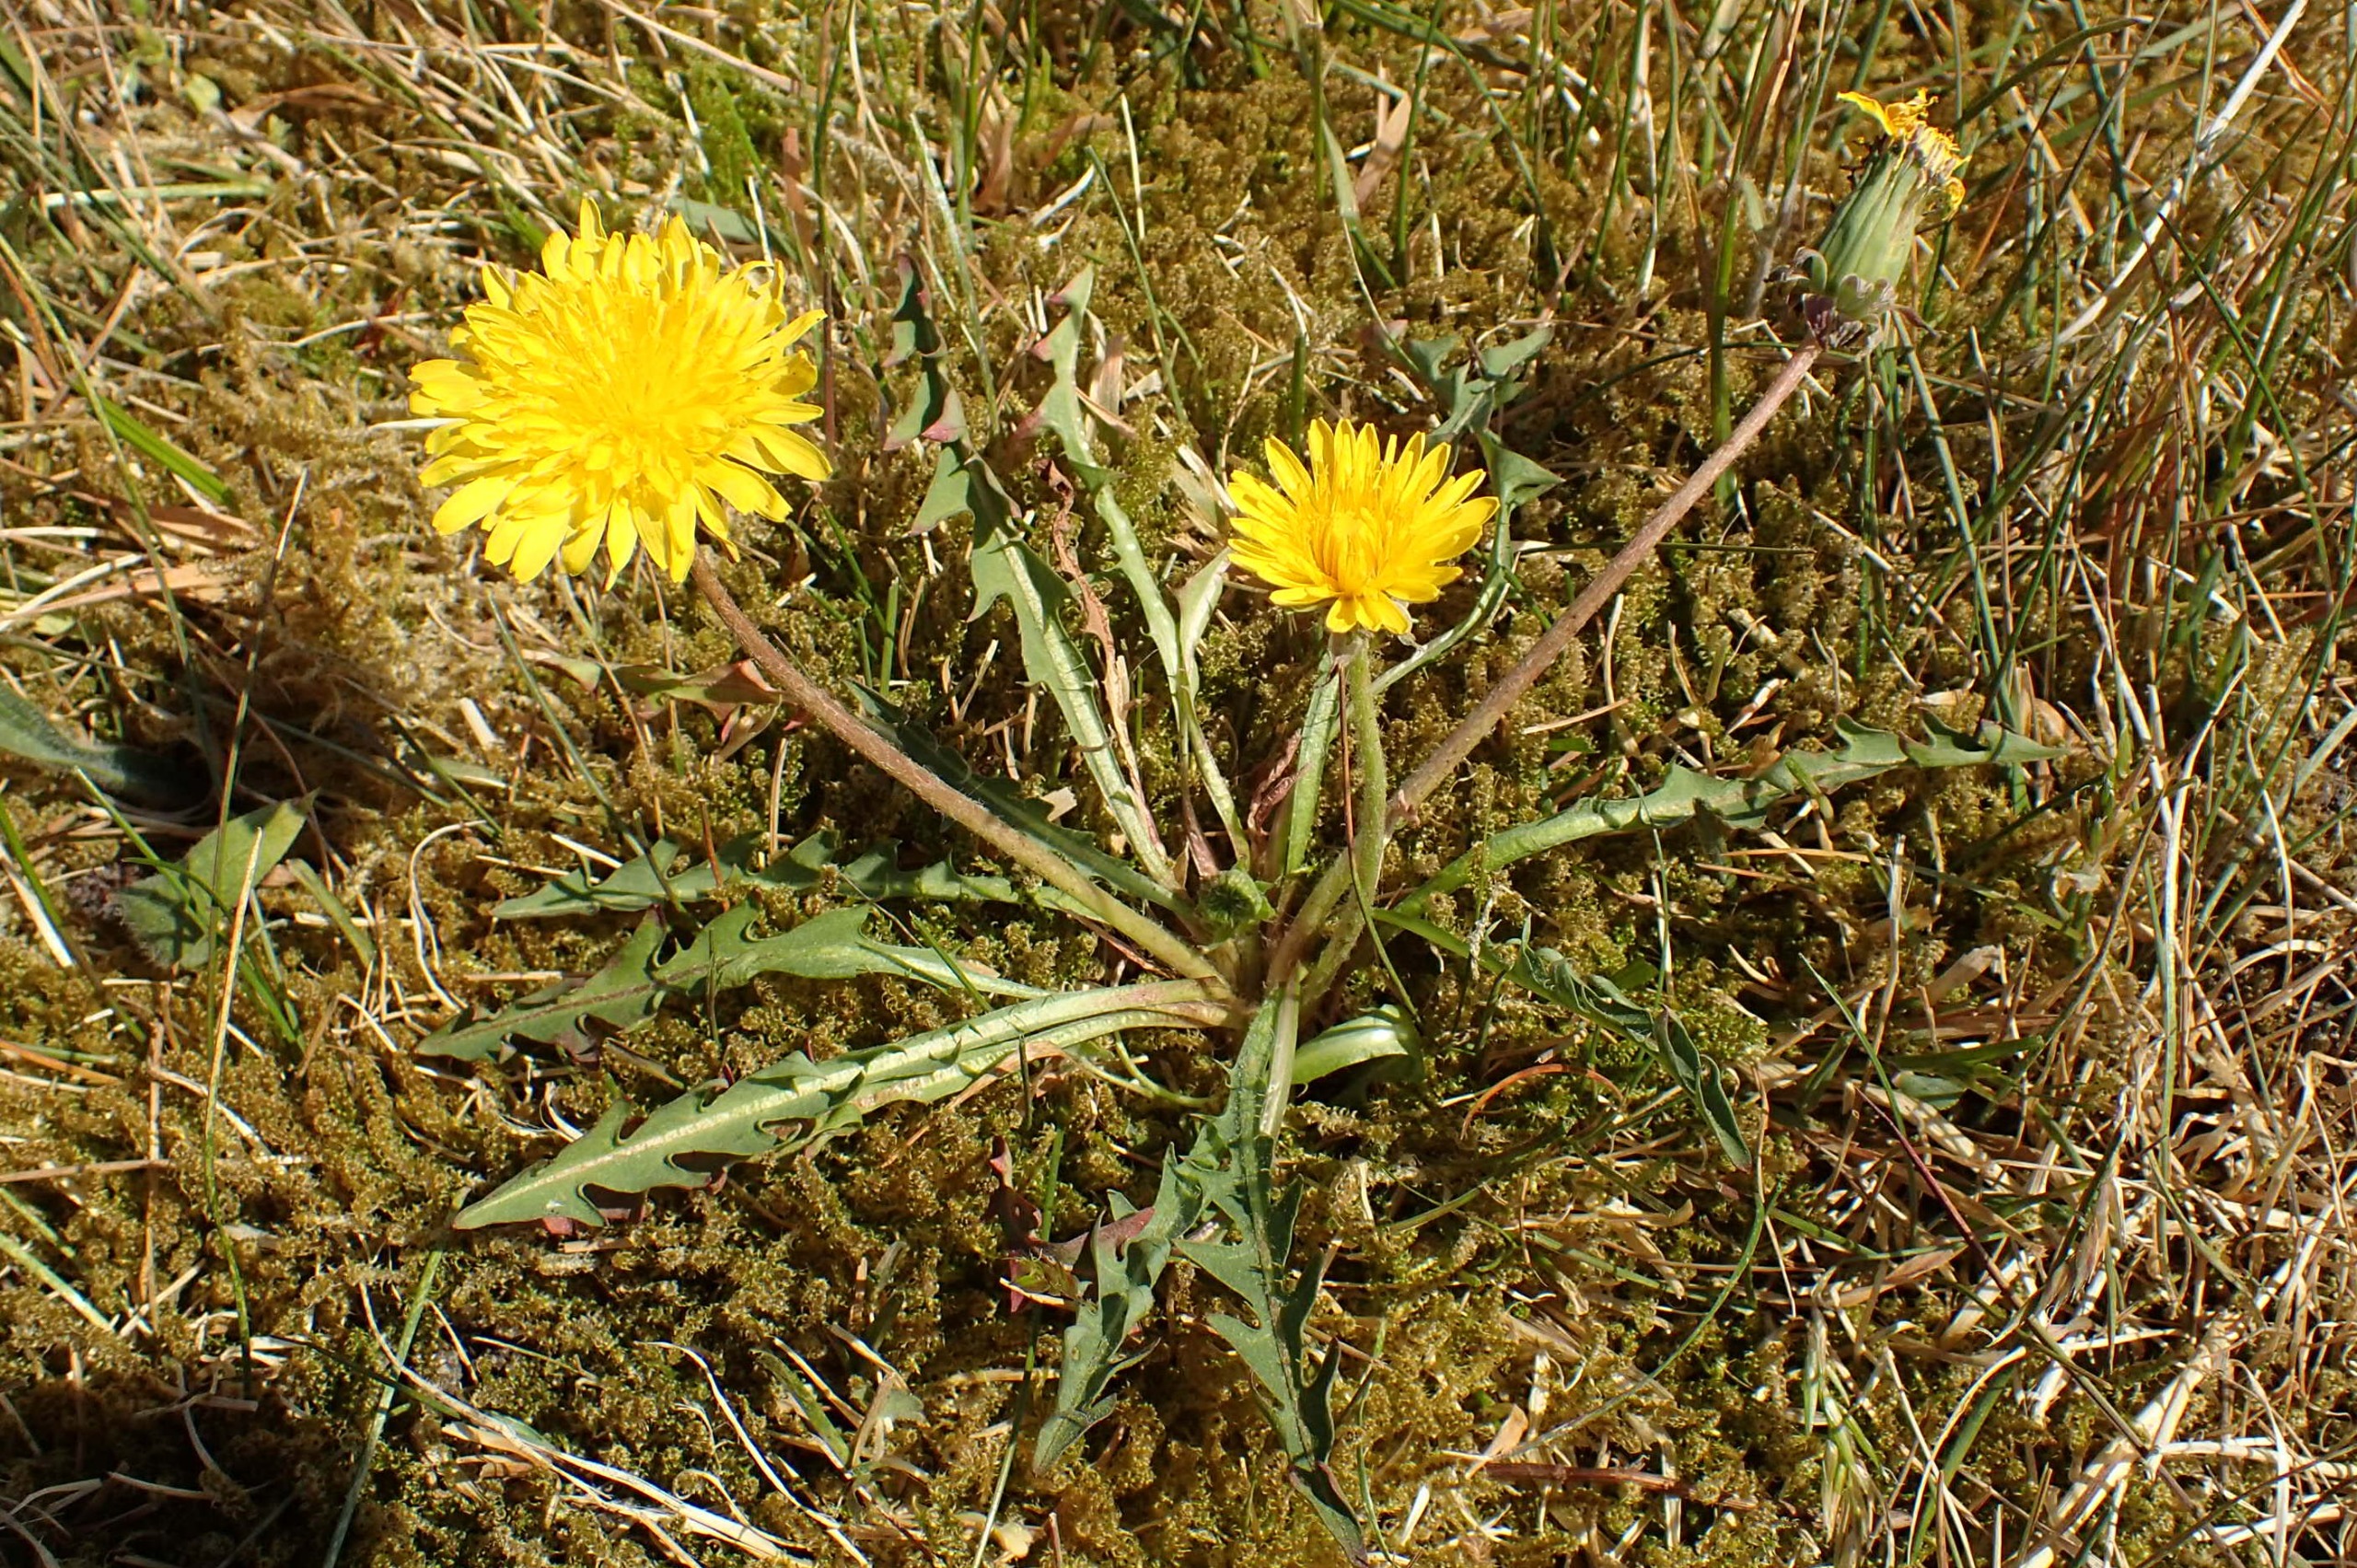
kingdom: Plantae
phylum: Tracheophyta
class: Magnoliopsida
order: Asterales
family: Asteraceae
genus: Taraxacum
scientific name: Taraxacum laetum
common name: Lys sandmælkebøtte
